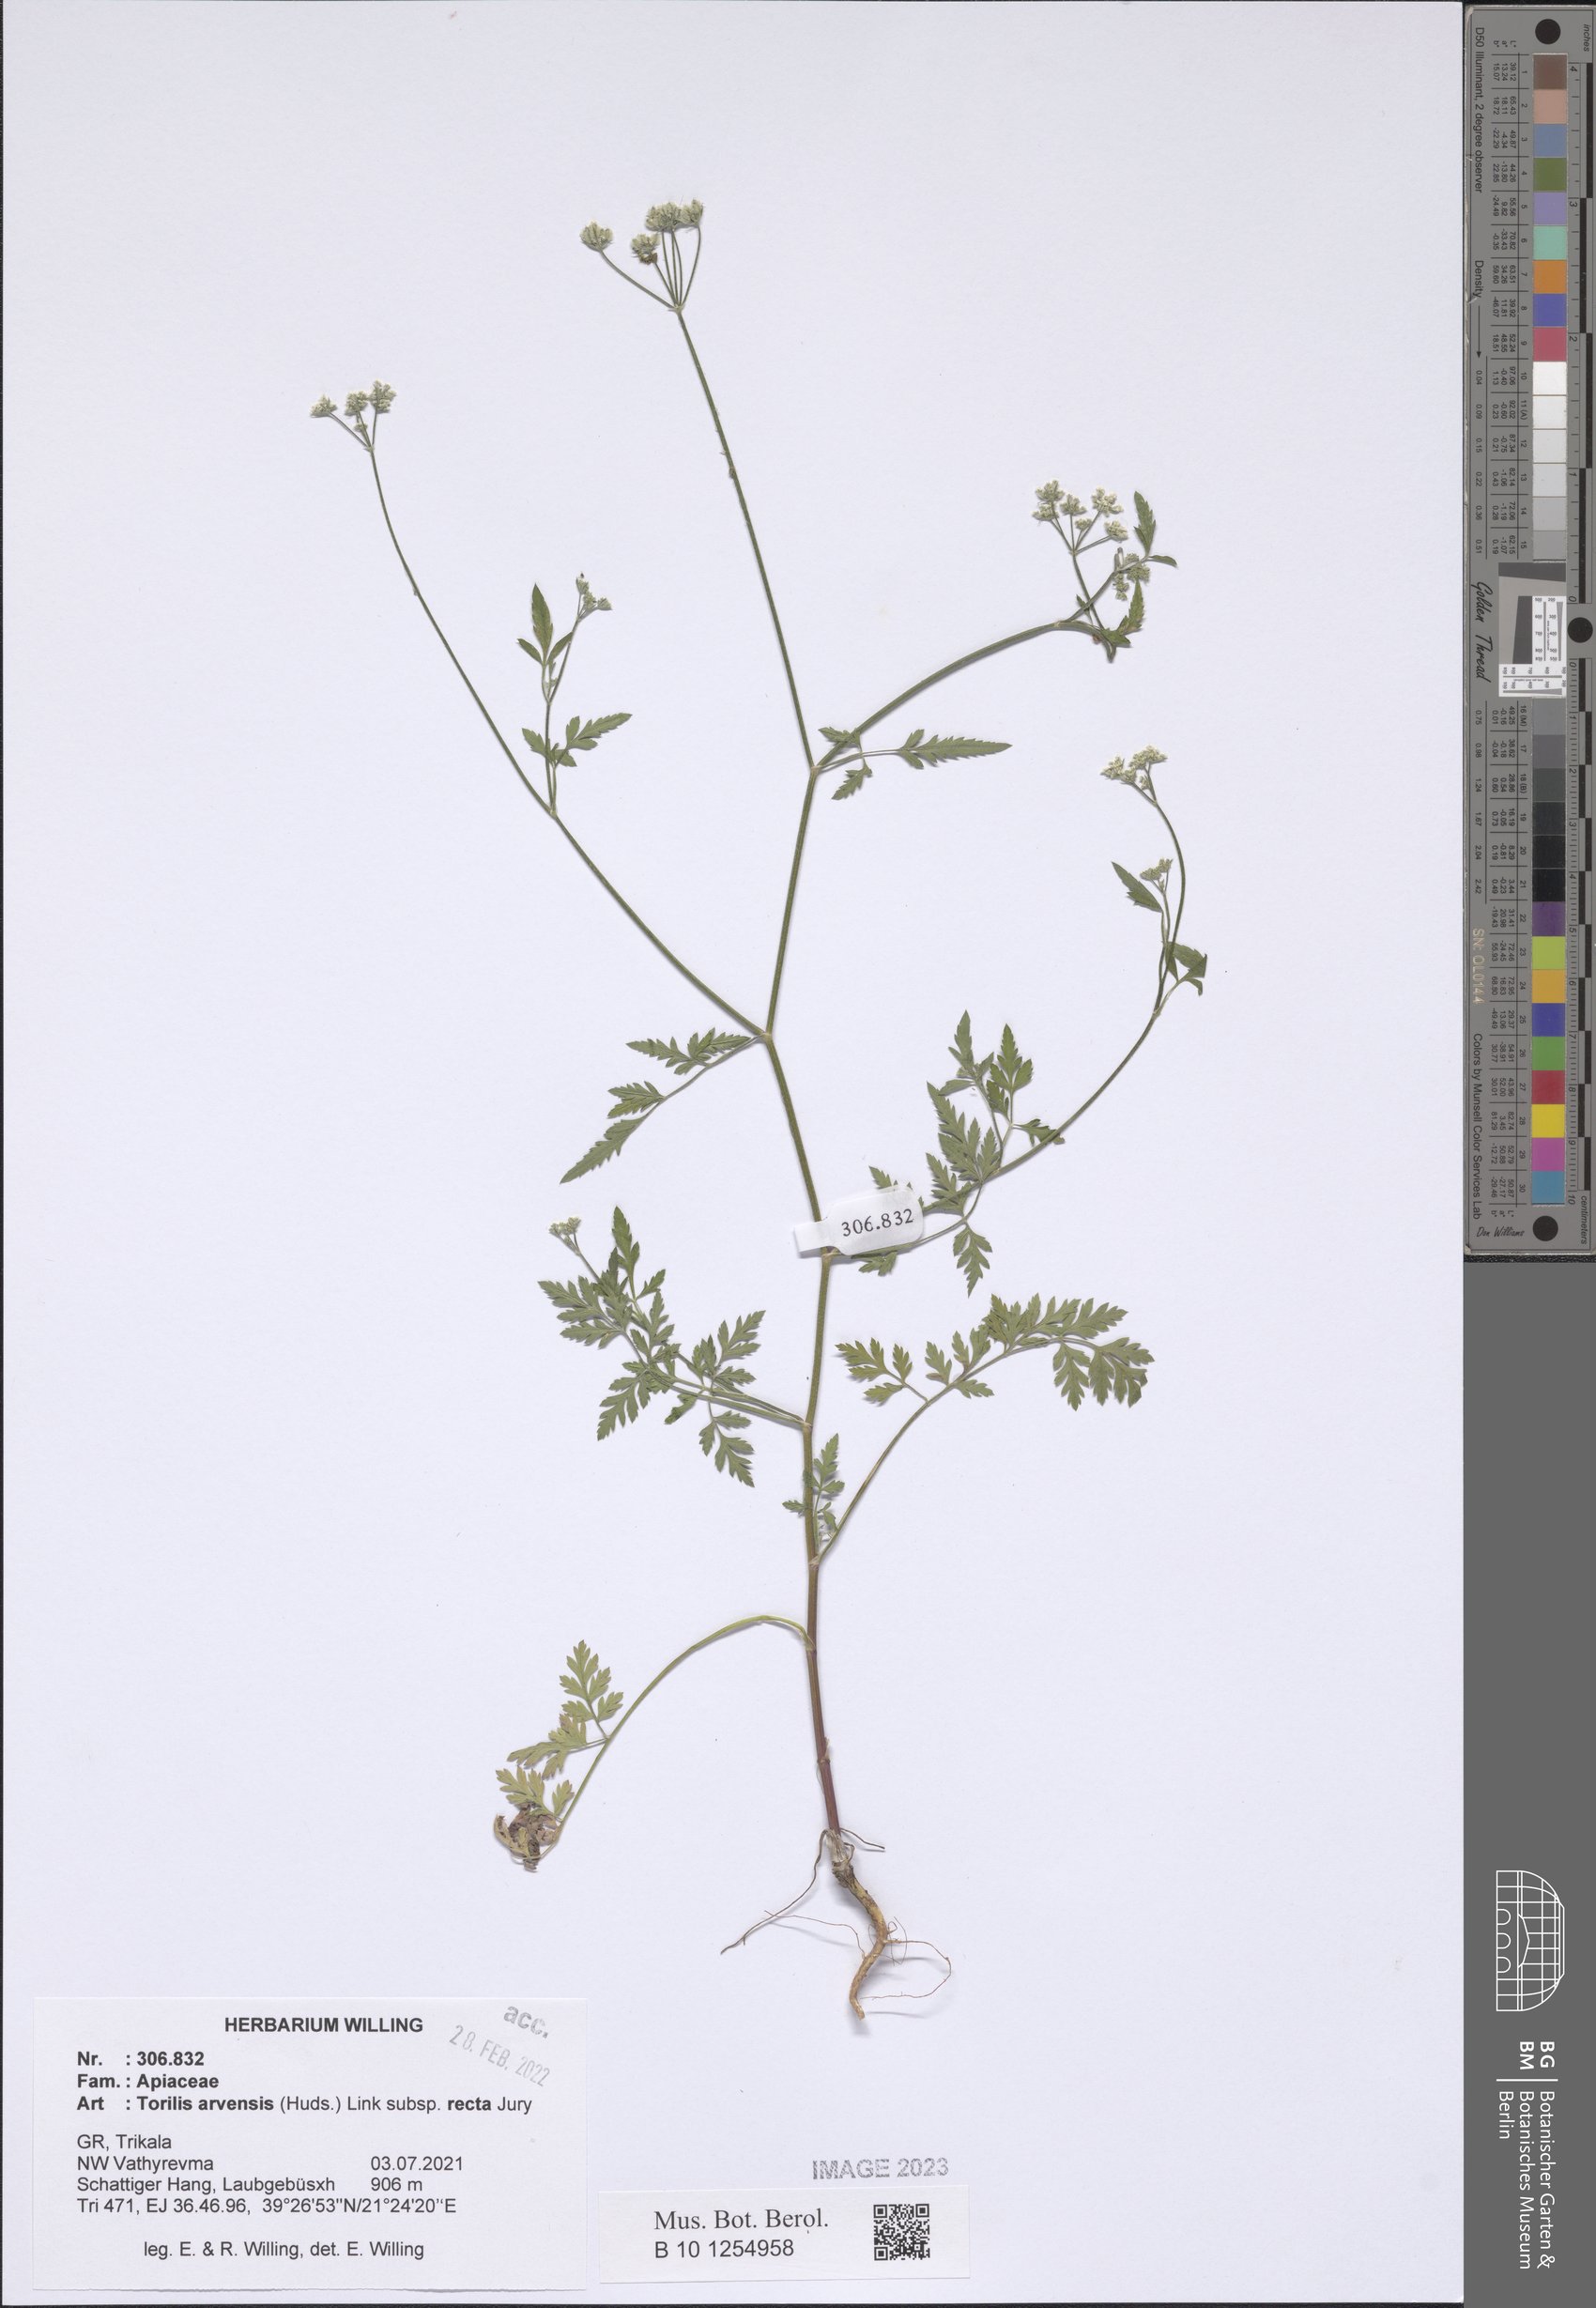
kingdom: Plantae
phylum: Tracheophyta
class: Magnoliopsida
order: Apiales
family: Apiaceae
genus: Torilis
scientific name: Torilis arvensis
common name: Spreading hedge-parsley
